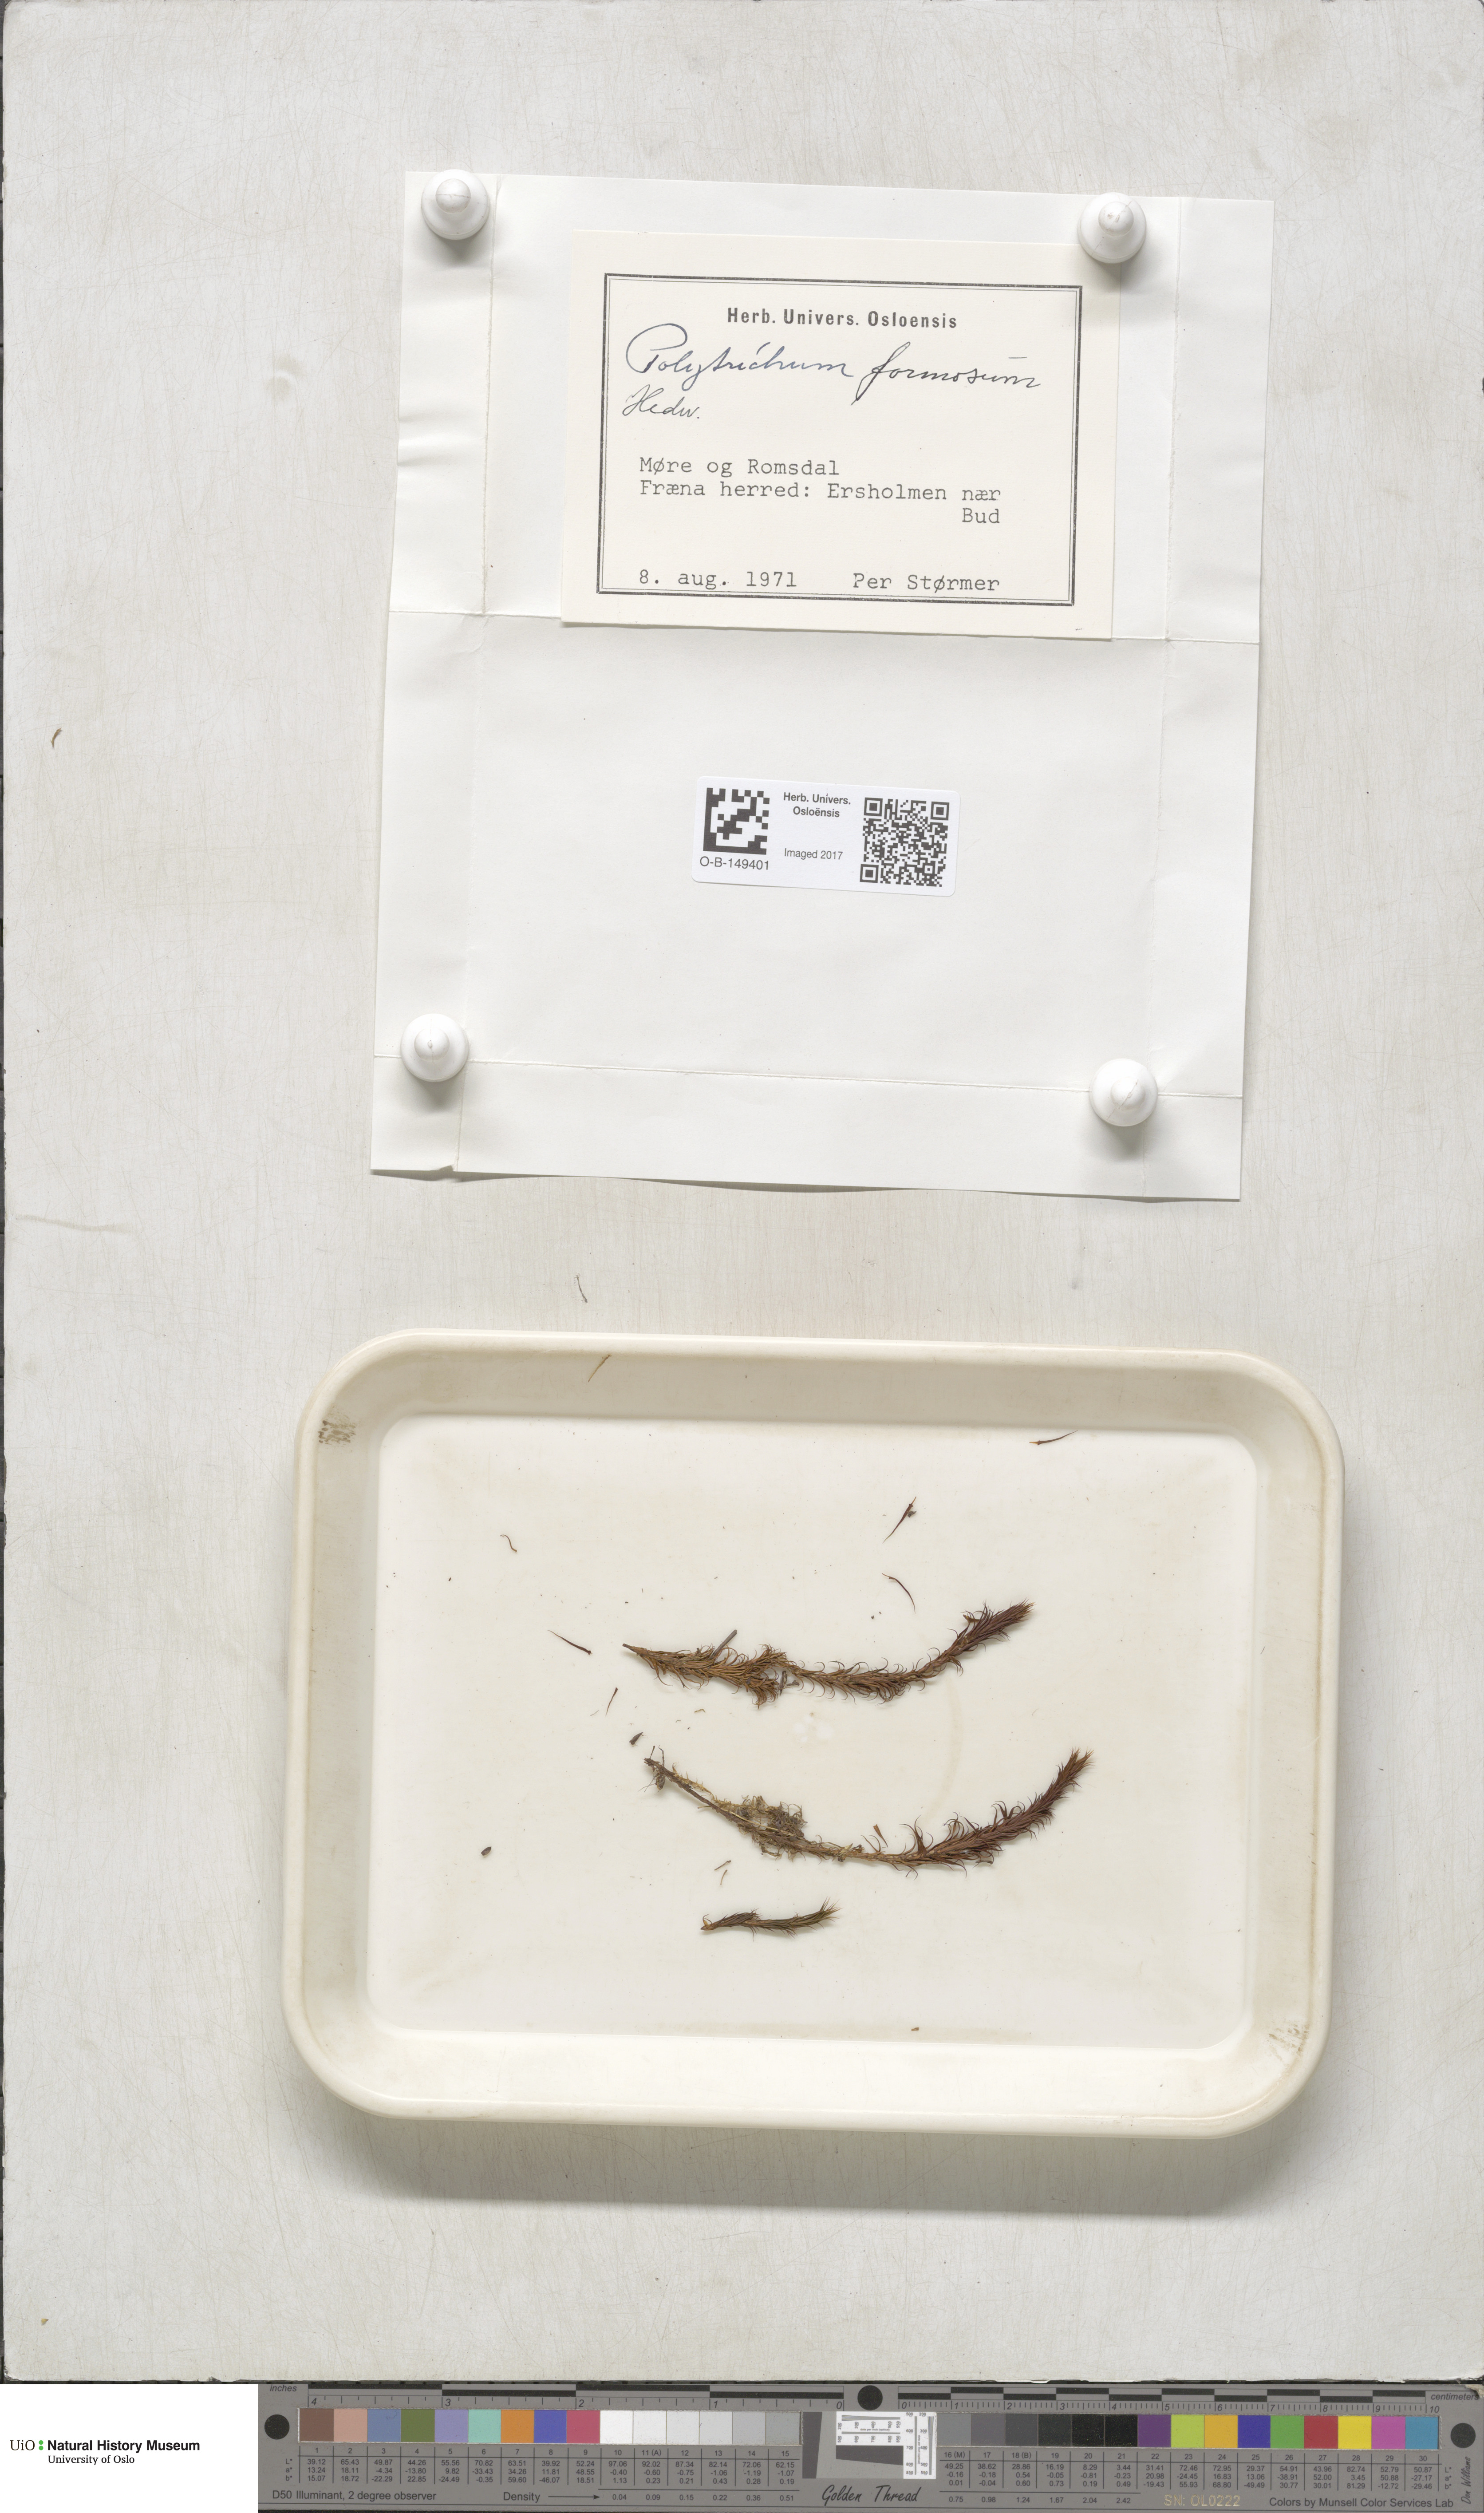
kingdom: Plantae
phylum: Bryophyta
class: Polytrichopsida
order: Polytrichales
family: Polytrichaceae
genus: Polytrichum
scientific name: Polytrichum formosum
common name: Bank haircap moss
